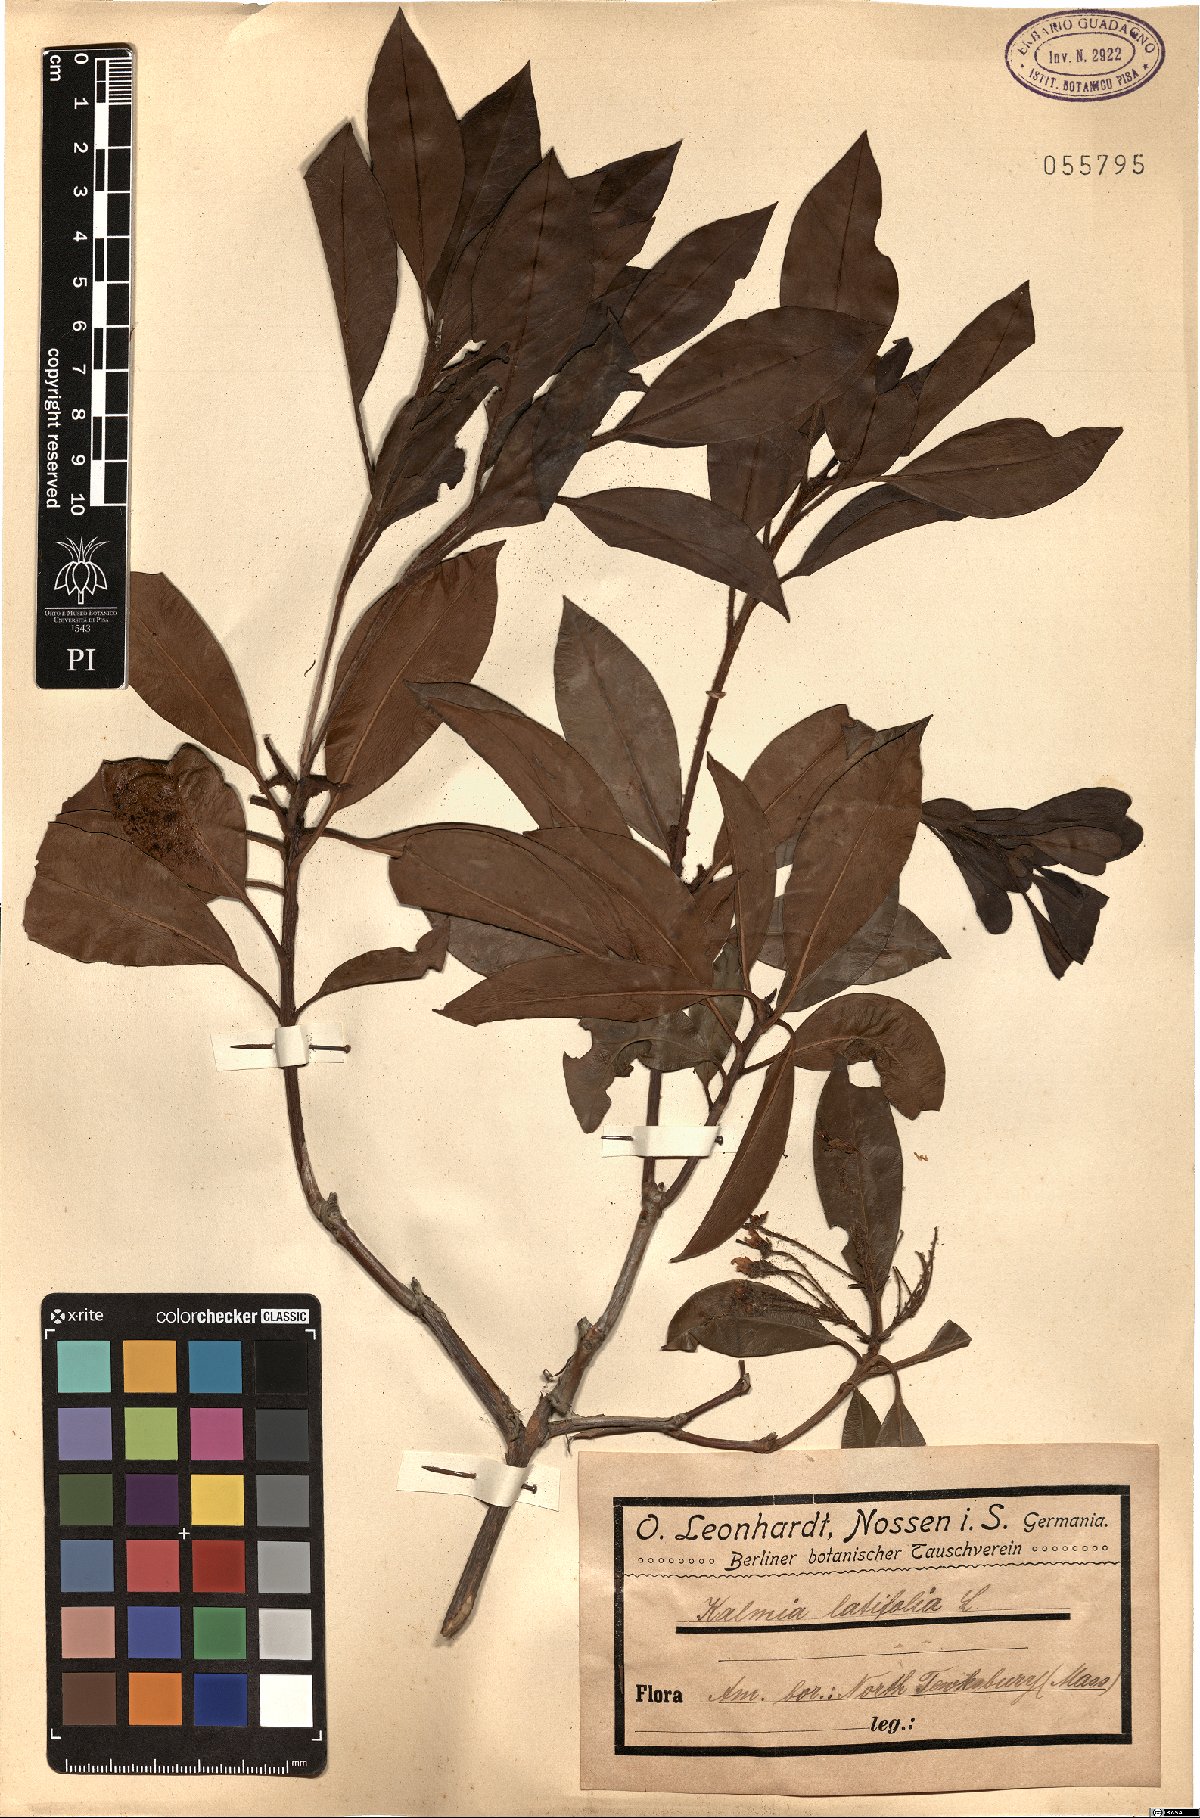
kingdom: Plantae
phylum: Tracheophyta
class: Magnoliopsida
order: Ericales
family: Ericaceae
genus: Kalmia
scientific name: Kalmia latifolia
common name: Mountain-laurel
